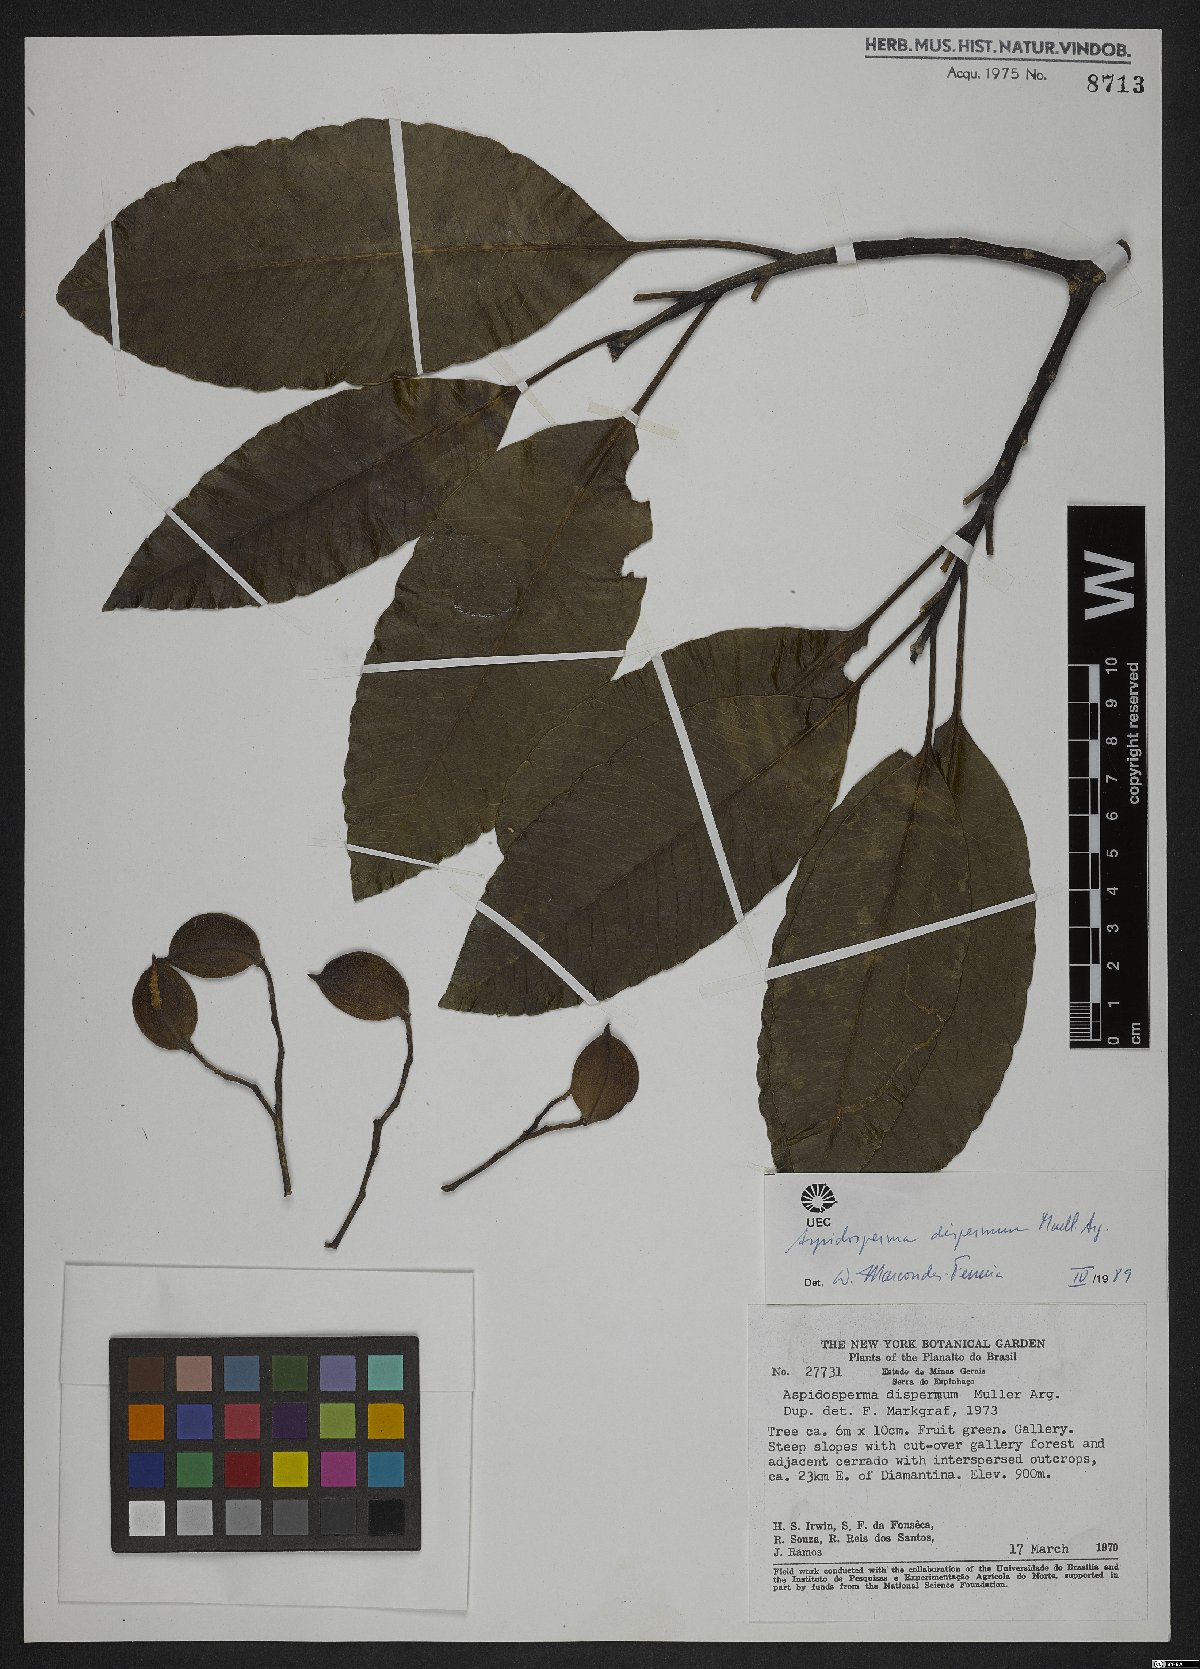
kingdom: Plantae
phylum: Tracheophyta
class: Magnoliopsida
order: Gentianales
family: Apocynaceae
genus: Aspidosperma
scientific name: Aspidosperma dispermum
